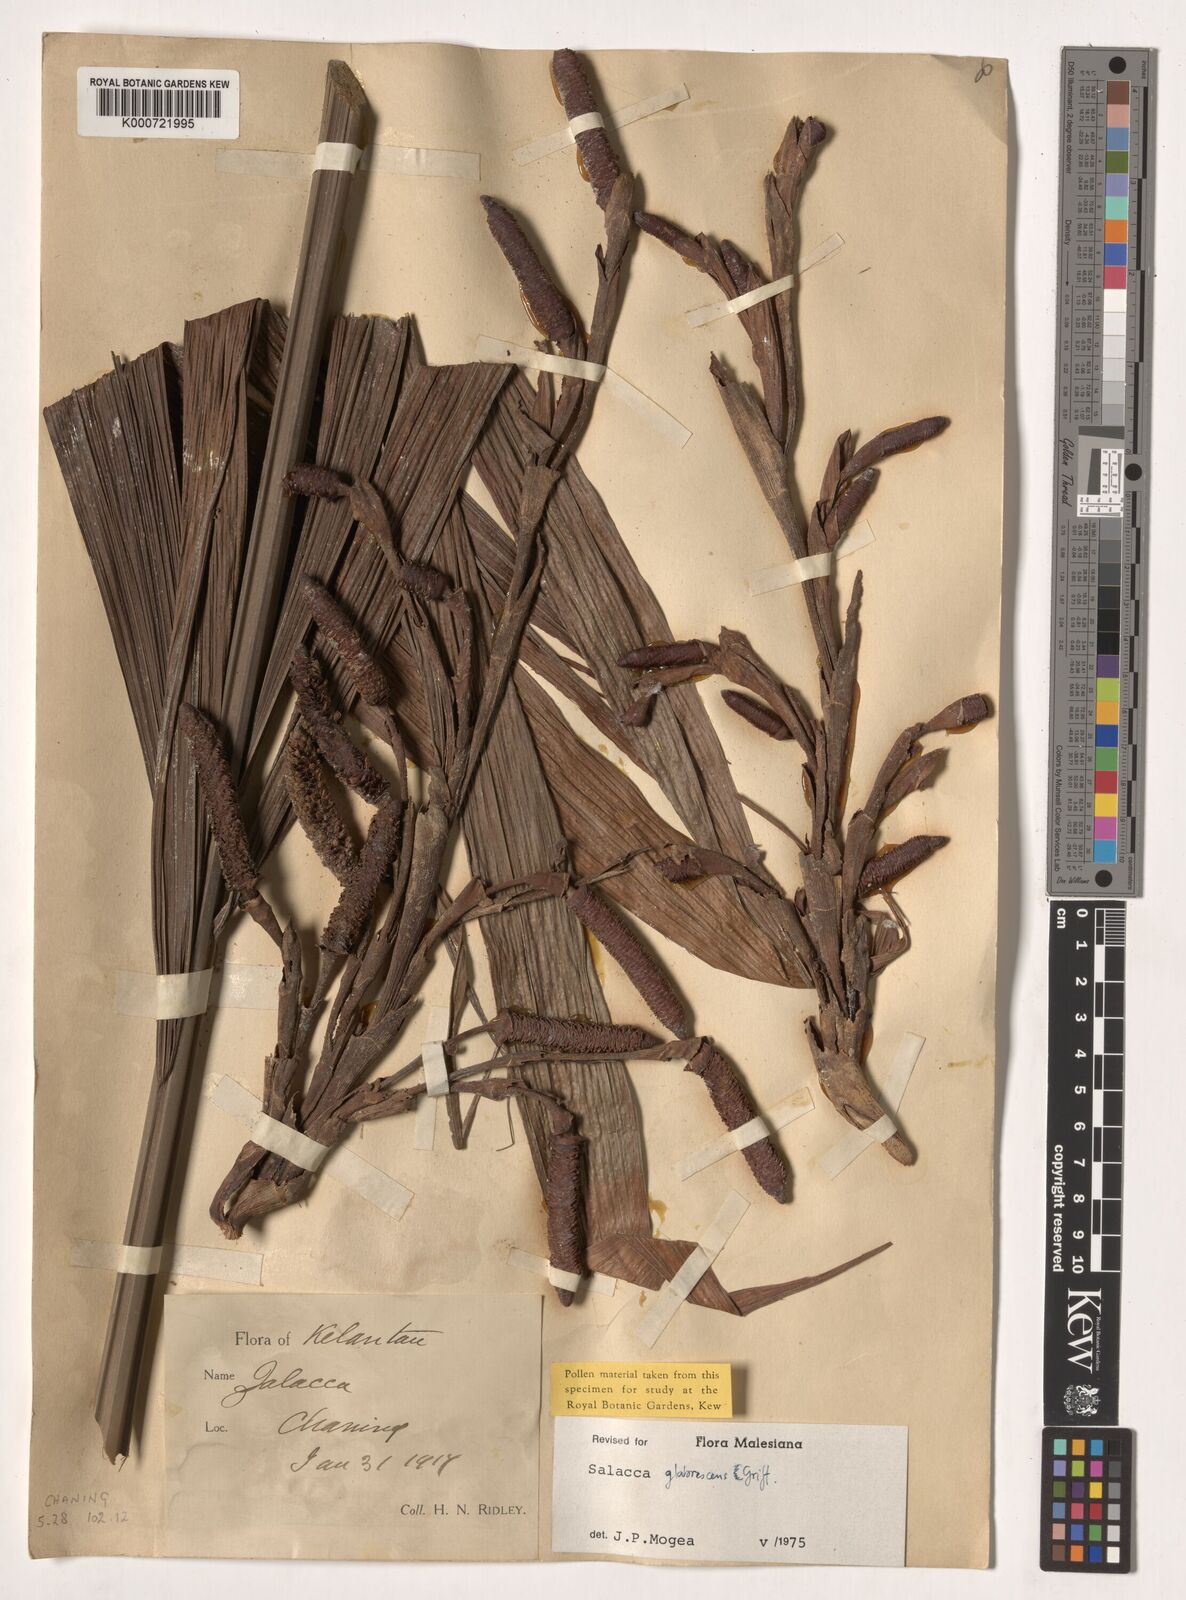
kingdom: Plantae
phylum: Tracheophyta
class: Liliopsida
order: Arecales
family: Arecaceae
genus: Salacca
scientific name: Salacca glabrescens
